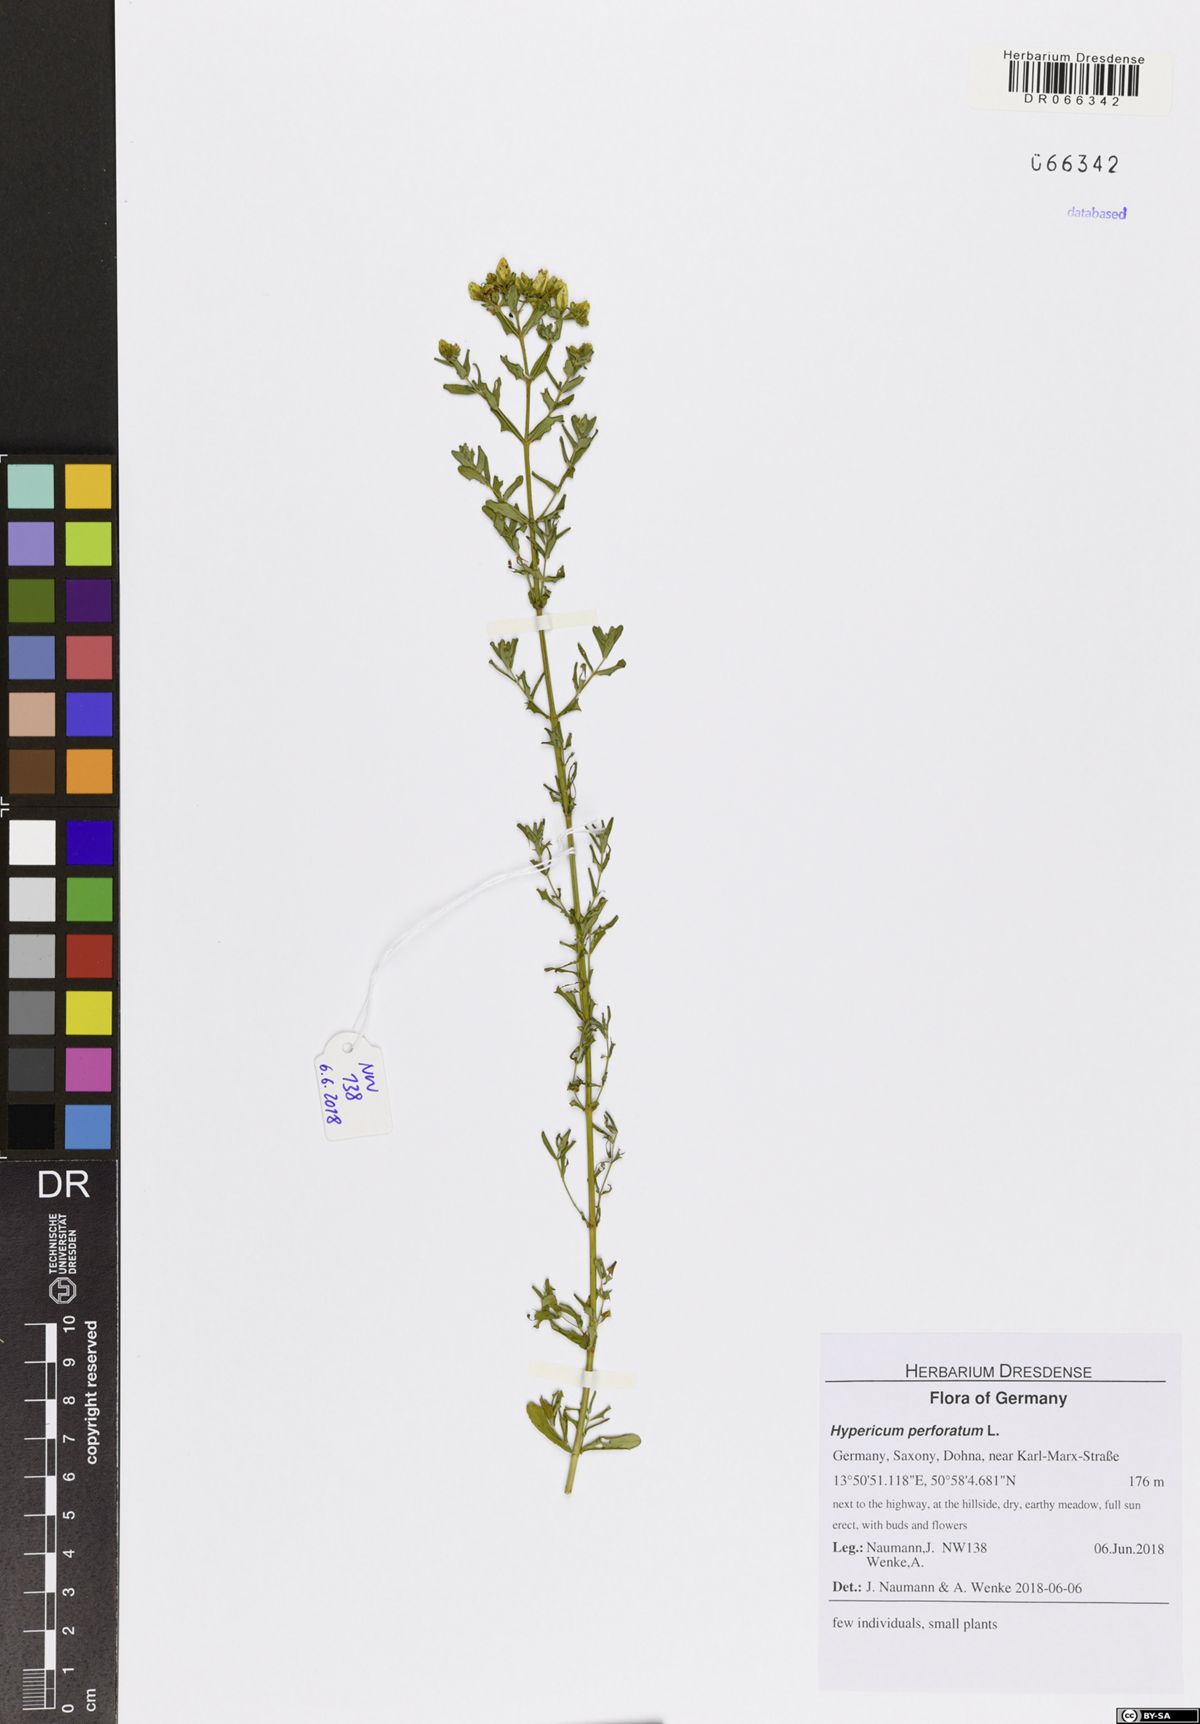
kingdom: Plantae
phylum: Tracheophyta
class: Magnoliopsida
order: Malpighiales
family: Hypericaceae
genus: Hypericum
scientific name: Hypericum perforatum
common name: Common st. johnswort
